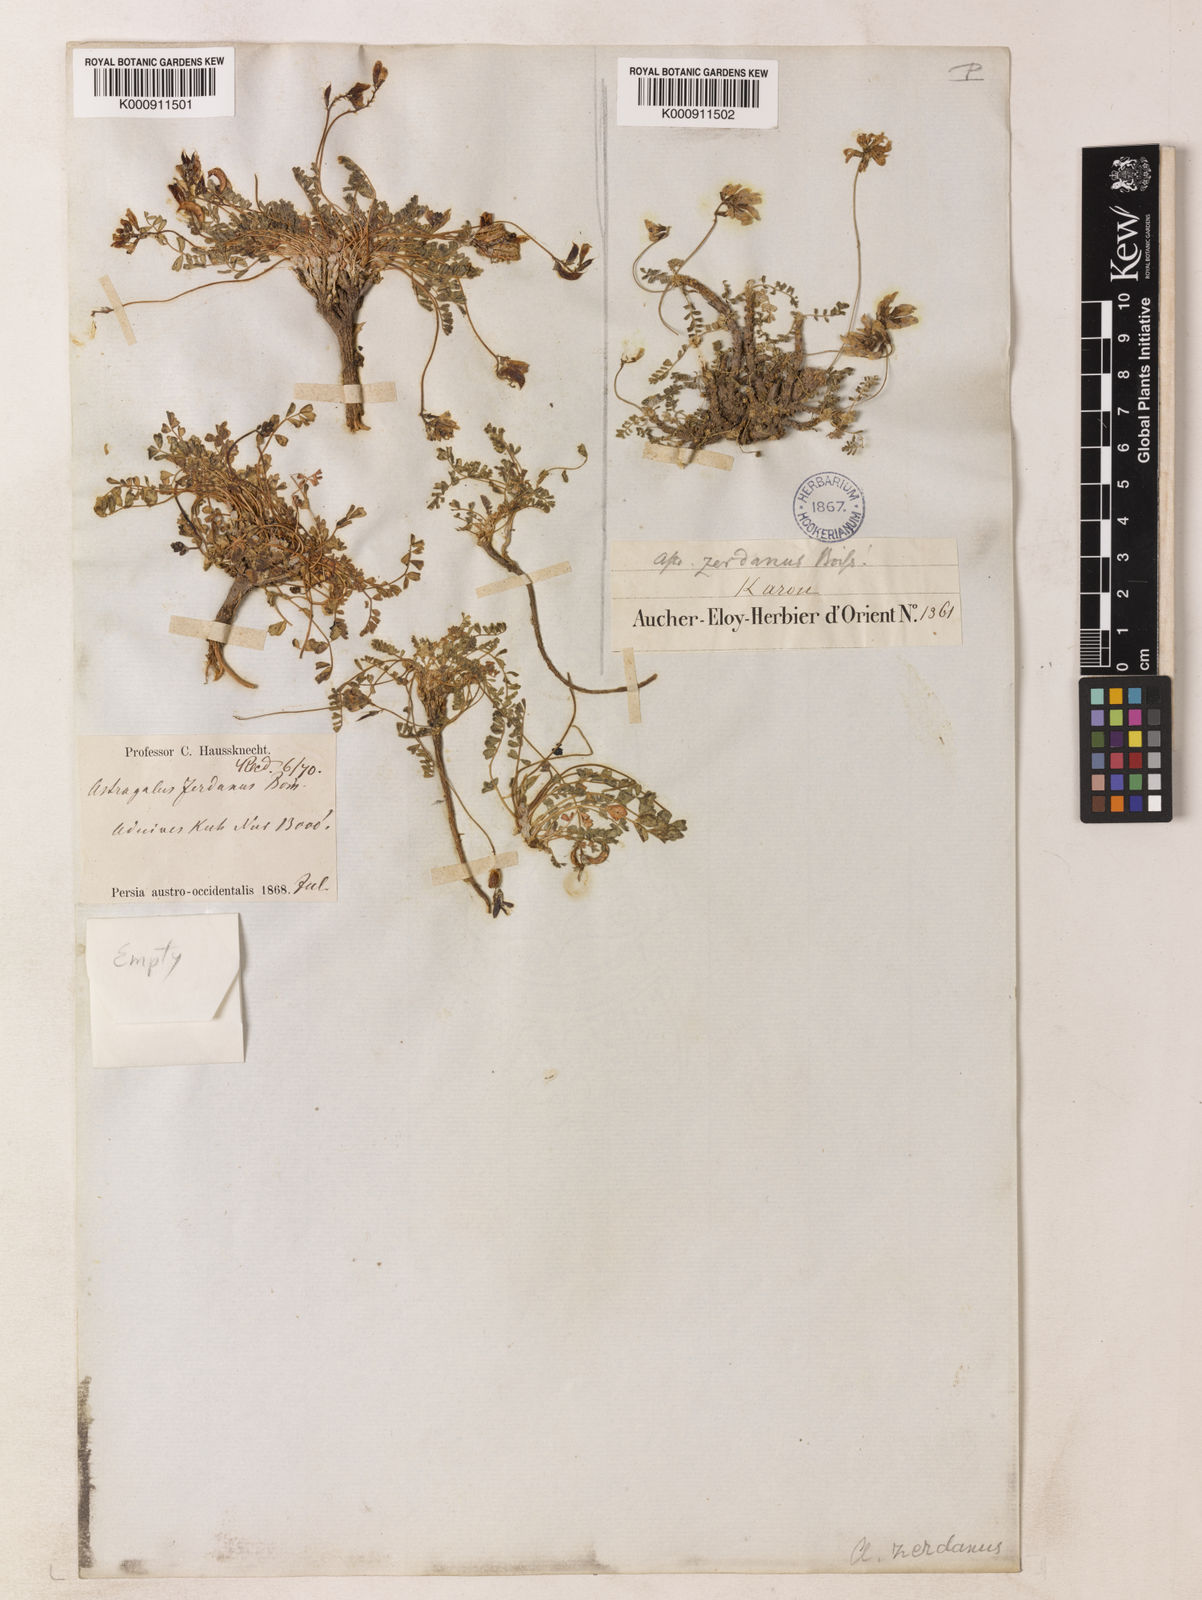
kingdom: Plantae
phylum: Tracheophyta
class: Magnoliopsida
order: Fabales
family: Fabaceae
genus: Astragalus
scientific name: Astragalus zerdanus
